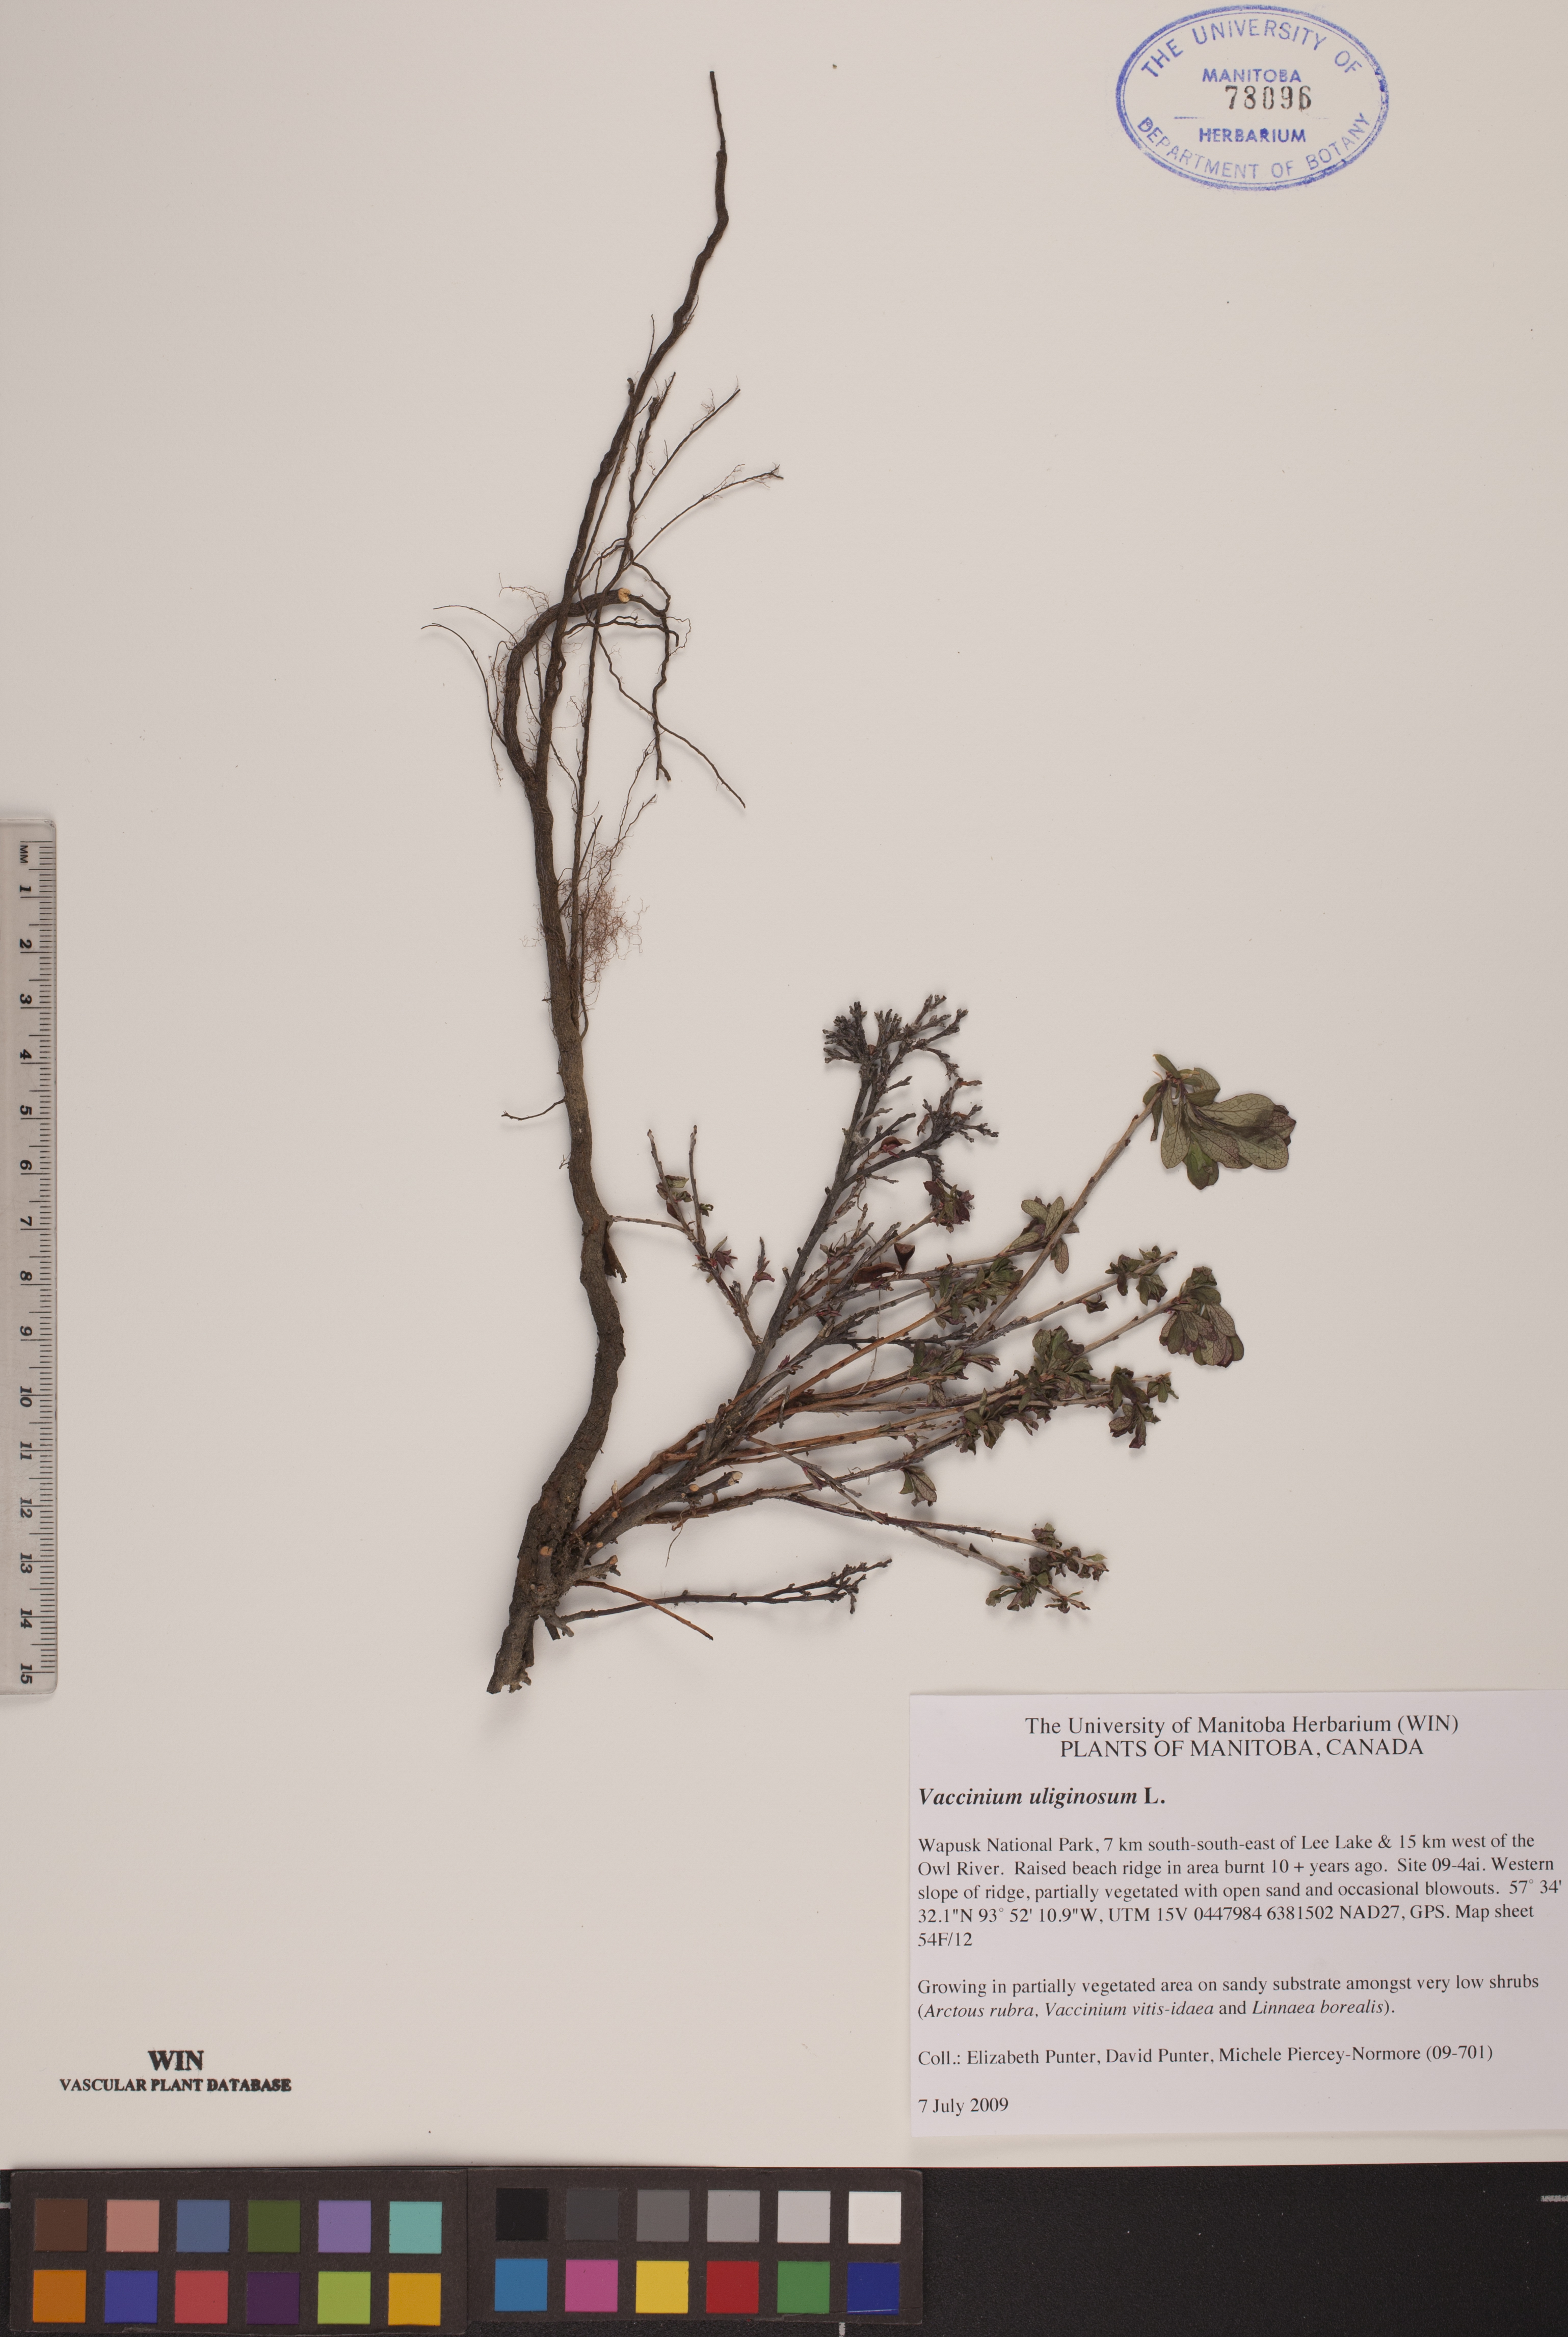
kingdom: Plantae
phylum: Tracheophyta
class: Magnoliopsida
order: Ericales
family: Ericaceae
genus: Vaccinium
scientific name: Vaccinium uliginosum
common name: Bog bilberry
